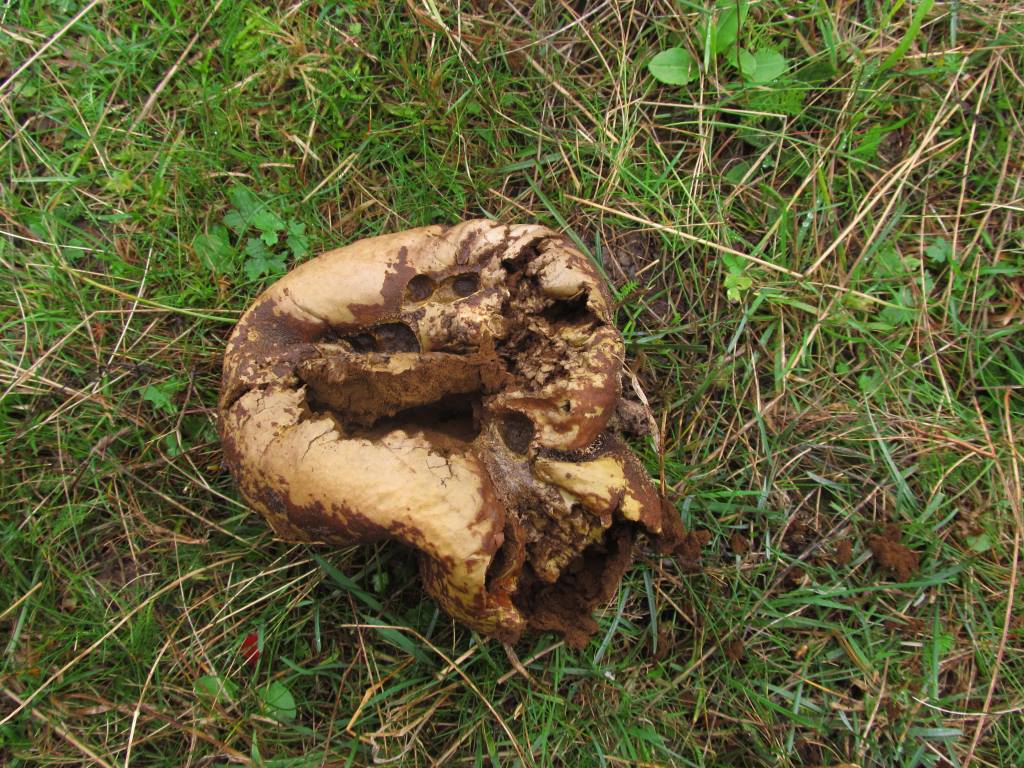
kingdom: Fungi
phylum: Basidiomycota
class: Agaricomycetes
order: Agaricales
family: Lycoperdaceae
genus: Bovistella
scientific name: Bovistella utriformis
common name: skællet støvbold
